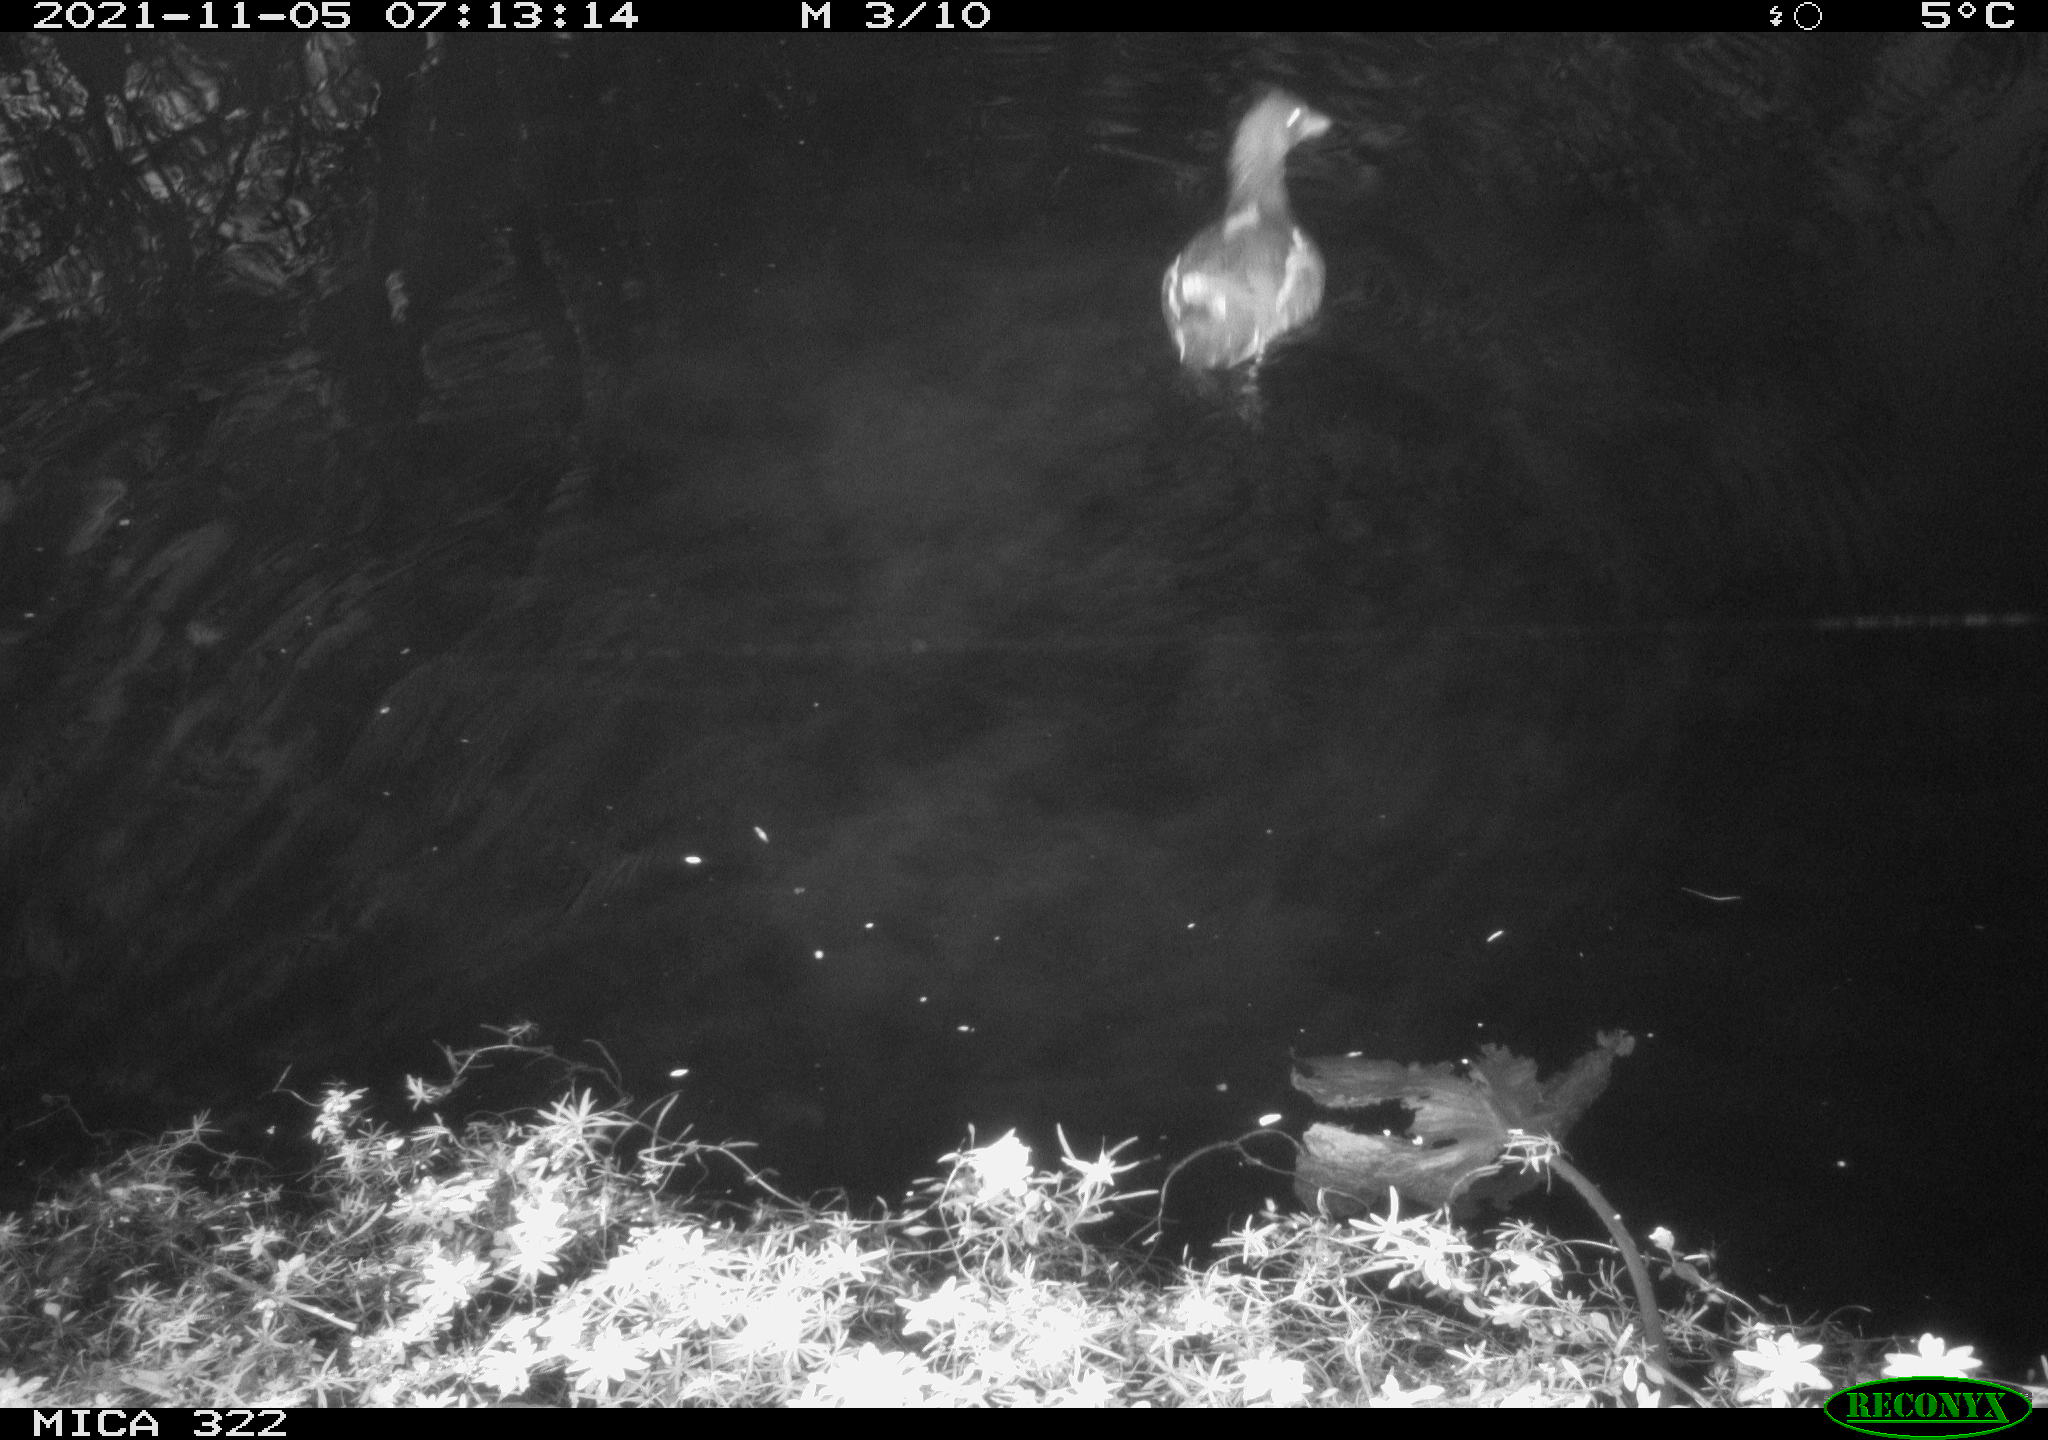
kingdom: Animalia
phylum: Chordata
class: Aves
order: Gruiformes
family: Rallidae
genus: Gallinula
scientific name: Gallinula chloropus
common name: Common moorhen
